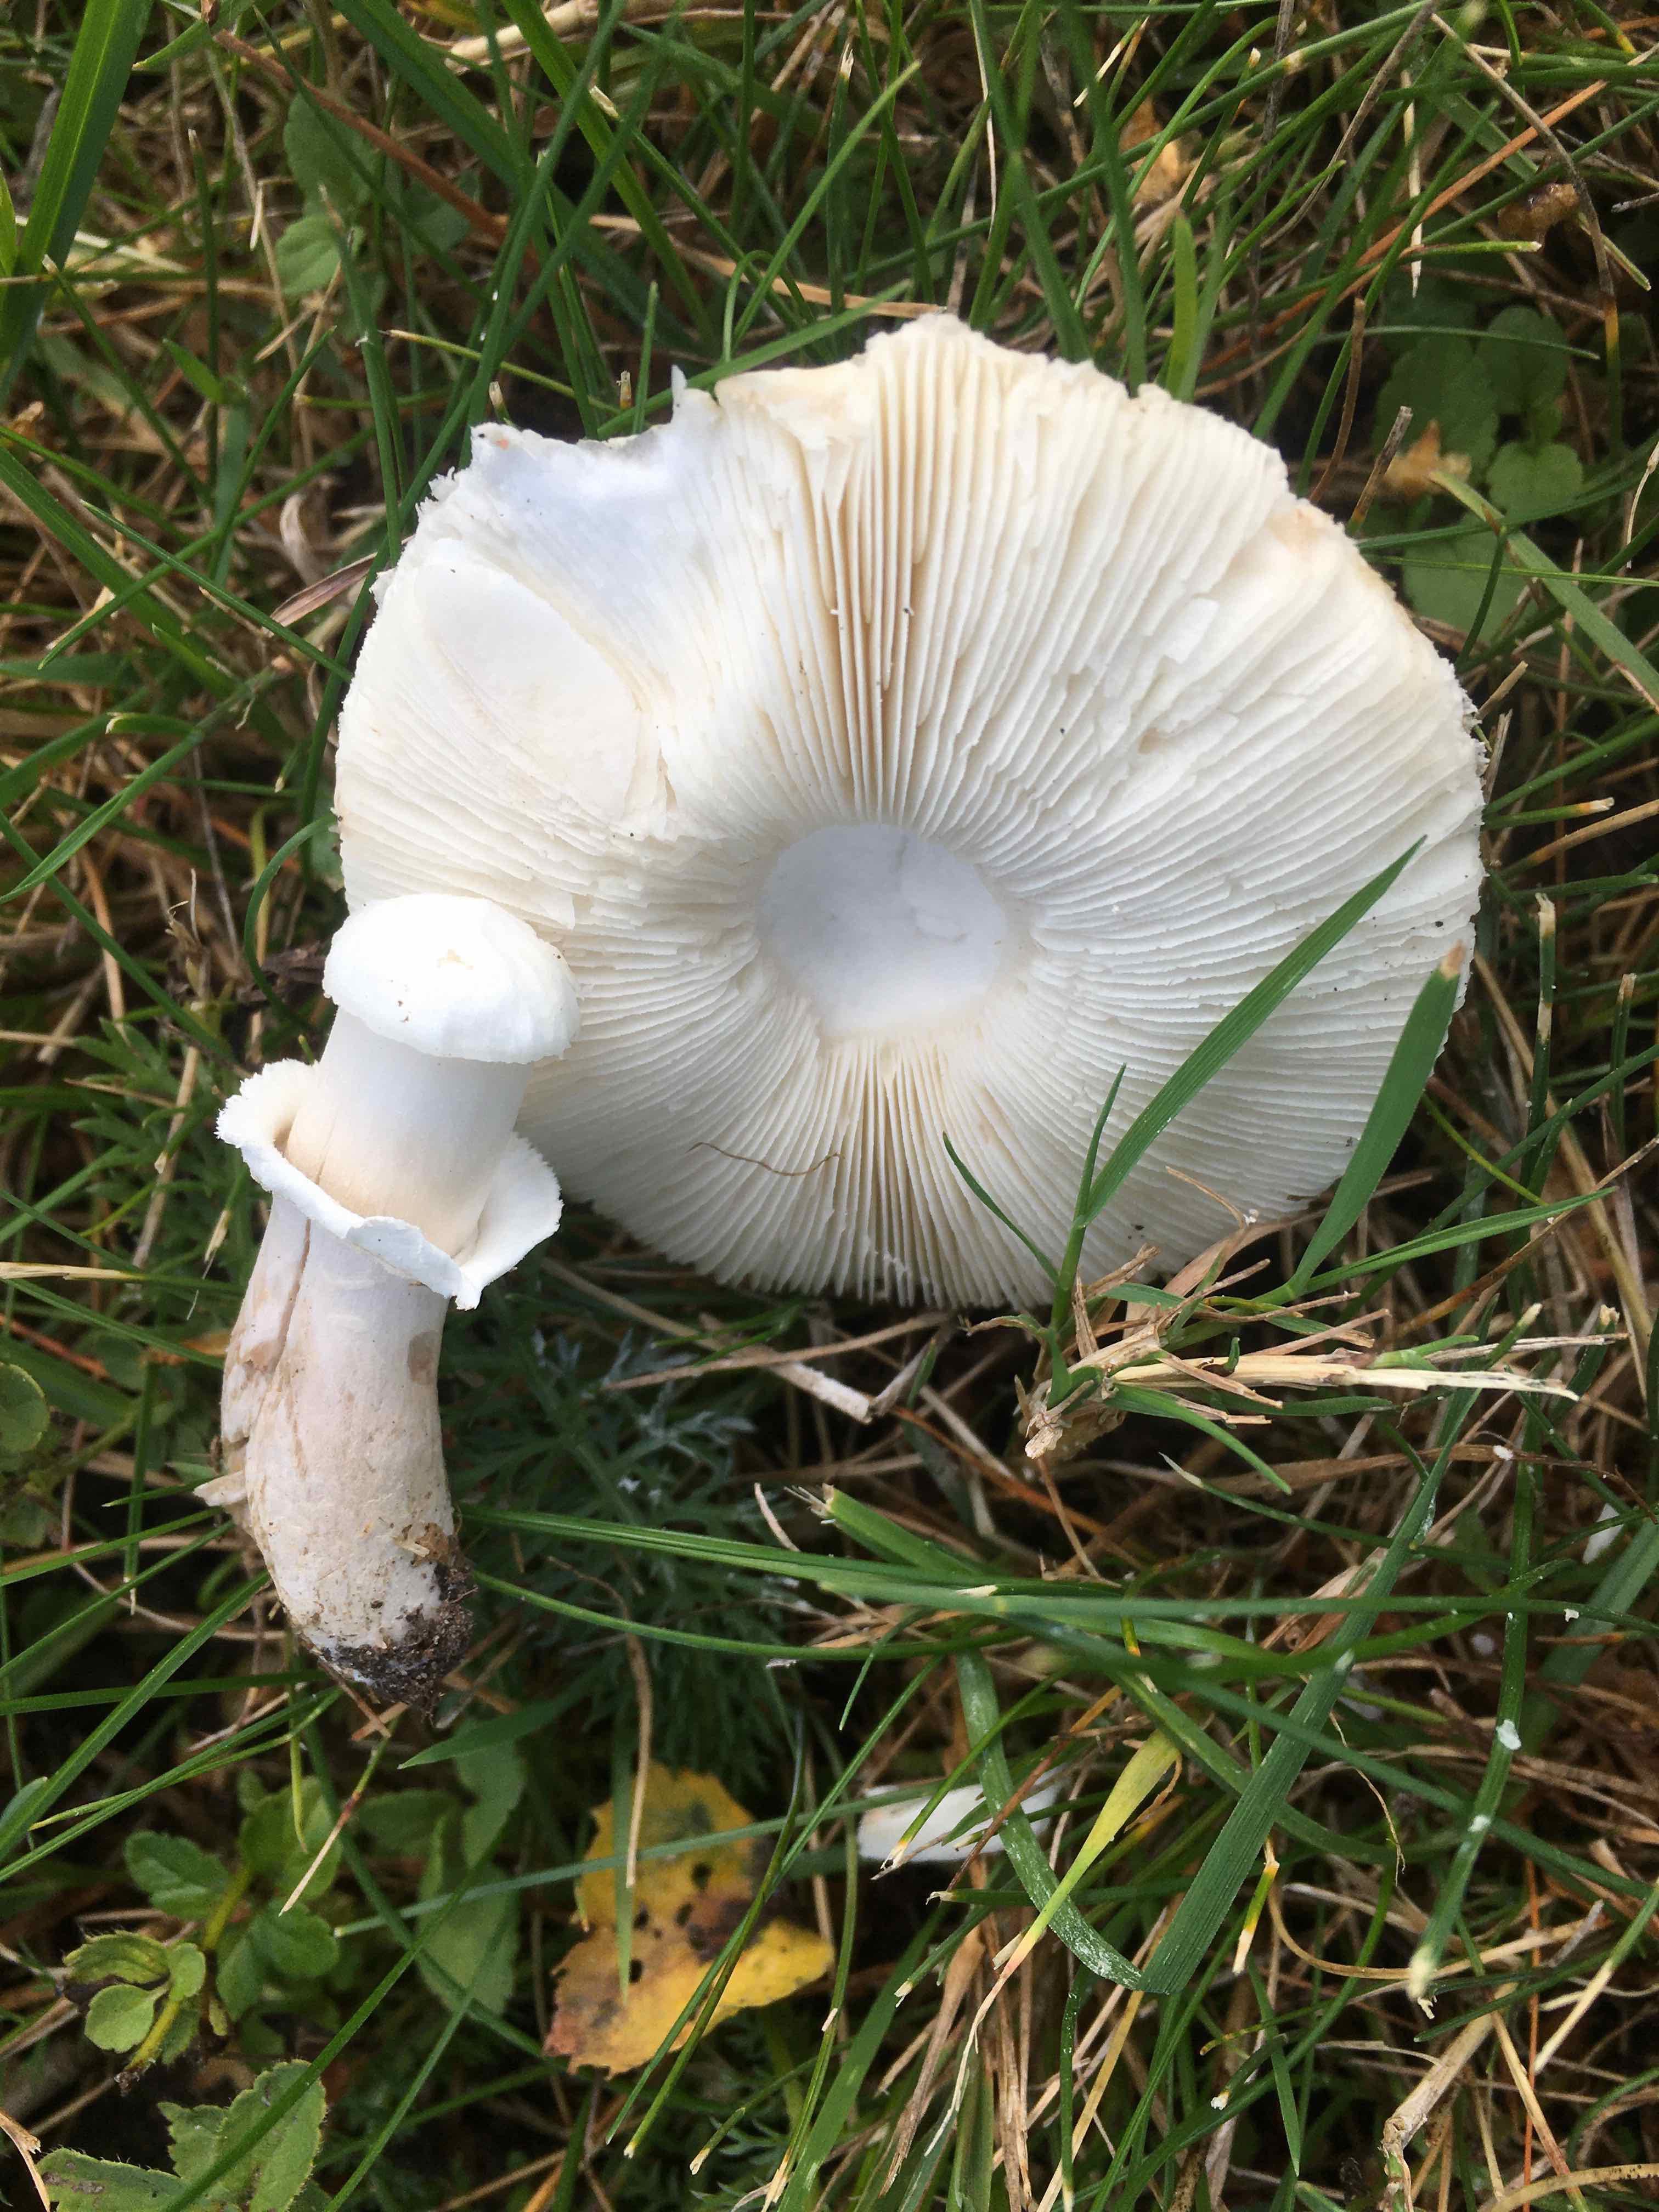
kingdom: Fungi
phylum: Basidiomycota
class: Agaricomycetes
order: Agaricales
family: Agaricaceae
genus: Leucoagaricus
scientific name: Leucoagaricus leucothites
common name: rosabladet silkehat
